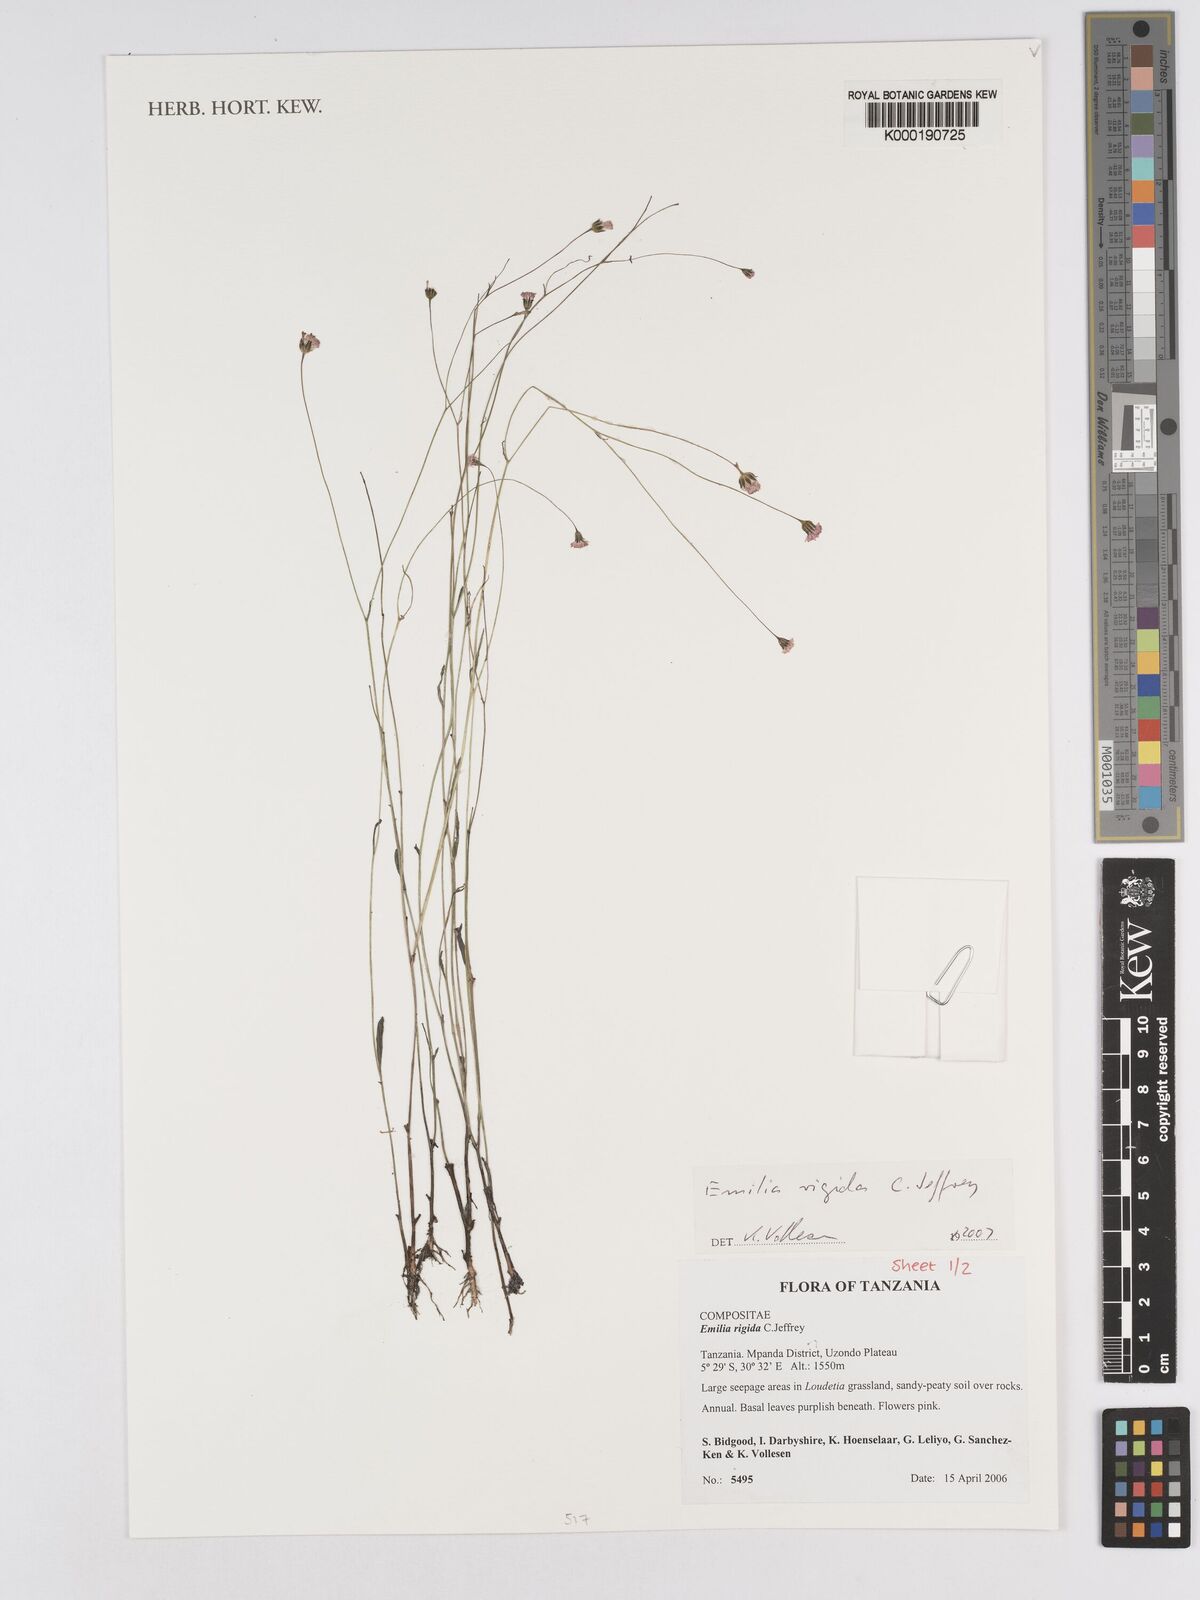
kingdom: Plantae
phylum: Tracheophyta
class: Magnoliopsida
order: Asterales
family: Asteraceae
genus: Emilia
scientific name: Emilia rigida
